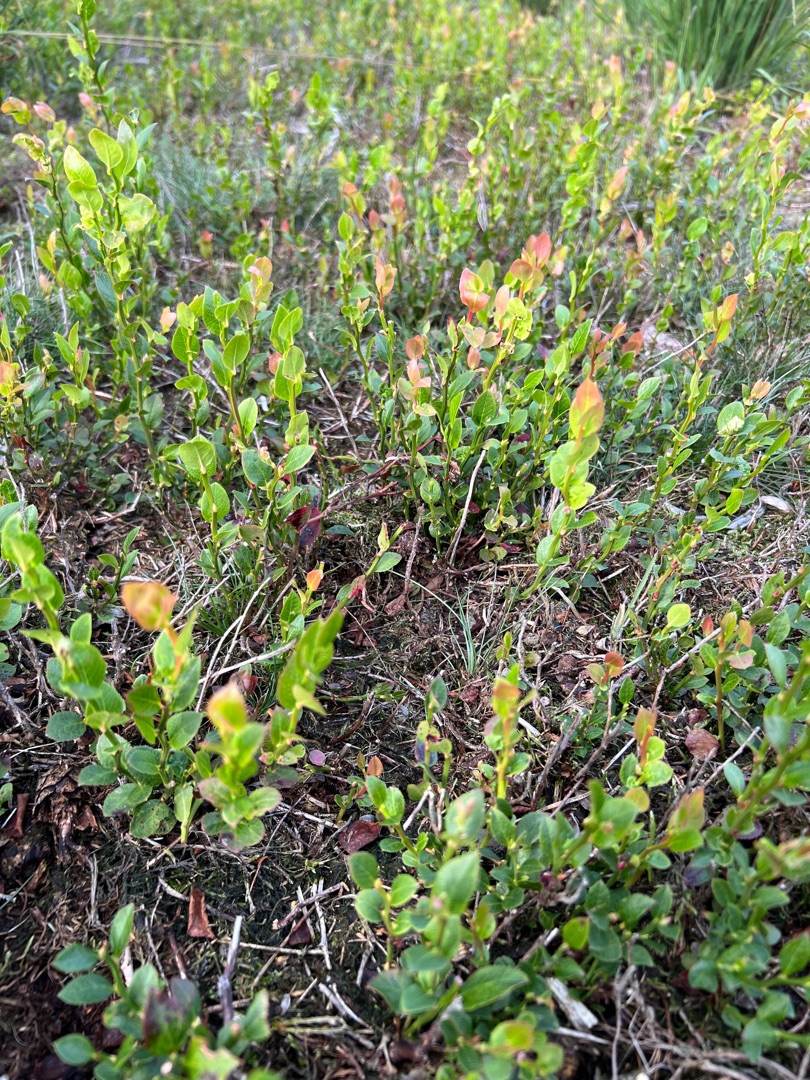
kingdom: Plantae
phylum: Tracheophyta
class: Magnoliopsida
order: Ericales
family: Ericaceae
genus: Vaccinium
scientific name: Vaccinium myrtillus
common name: Blåbær
